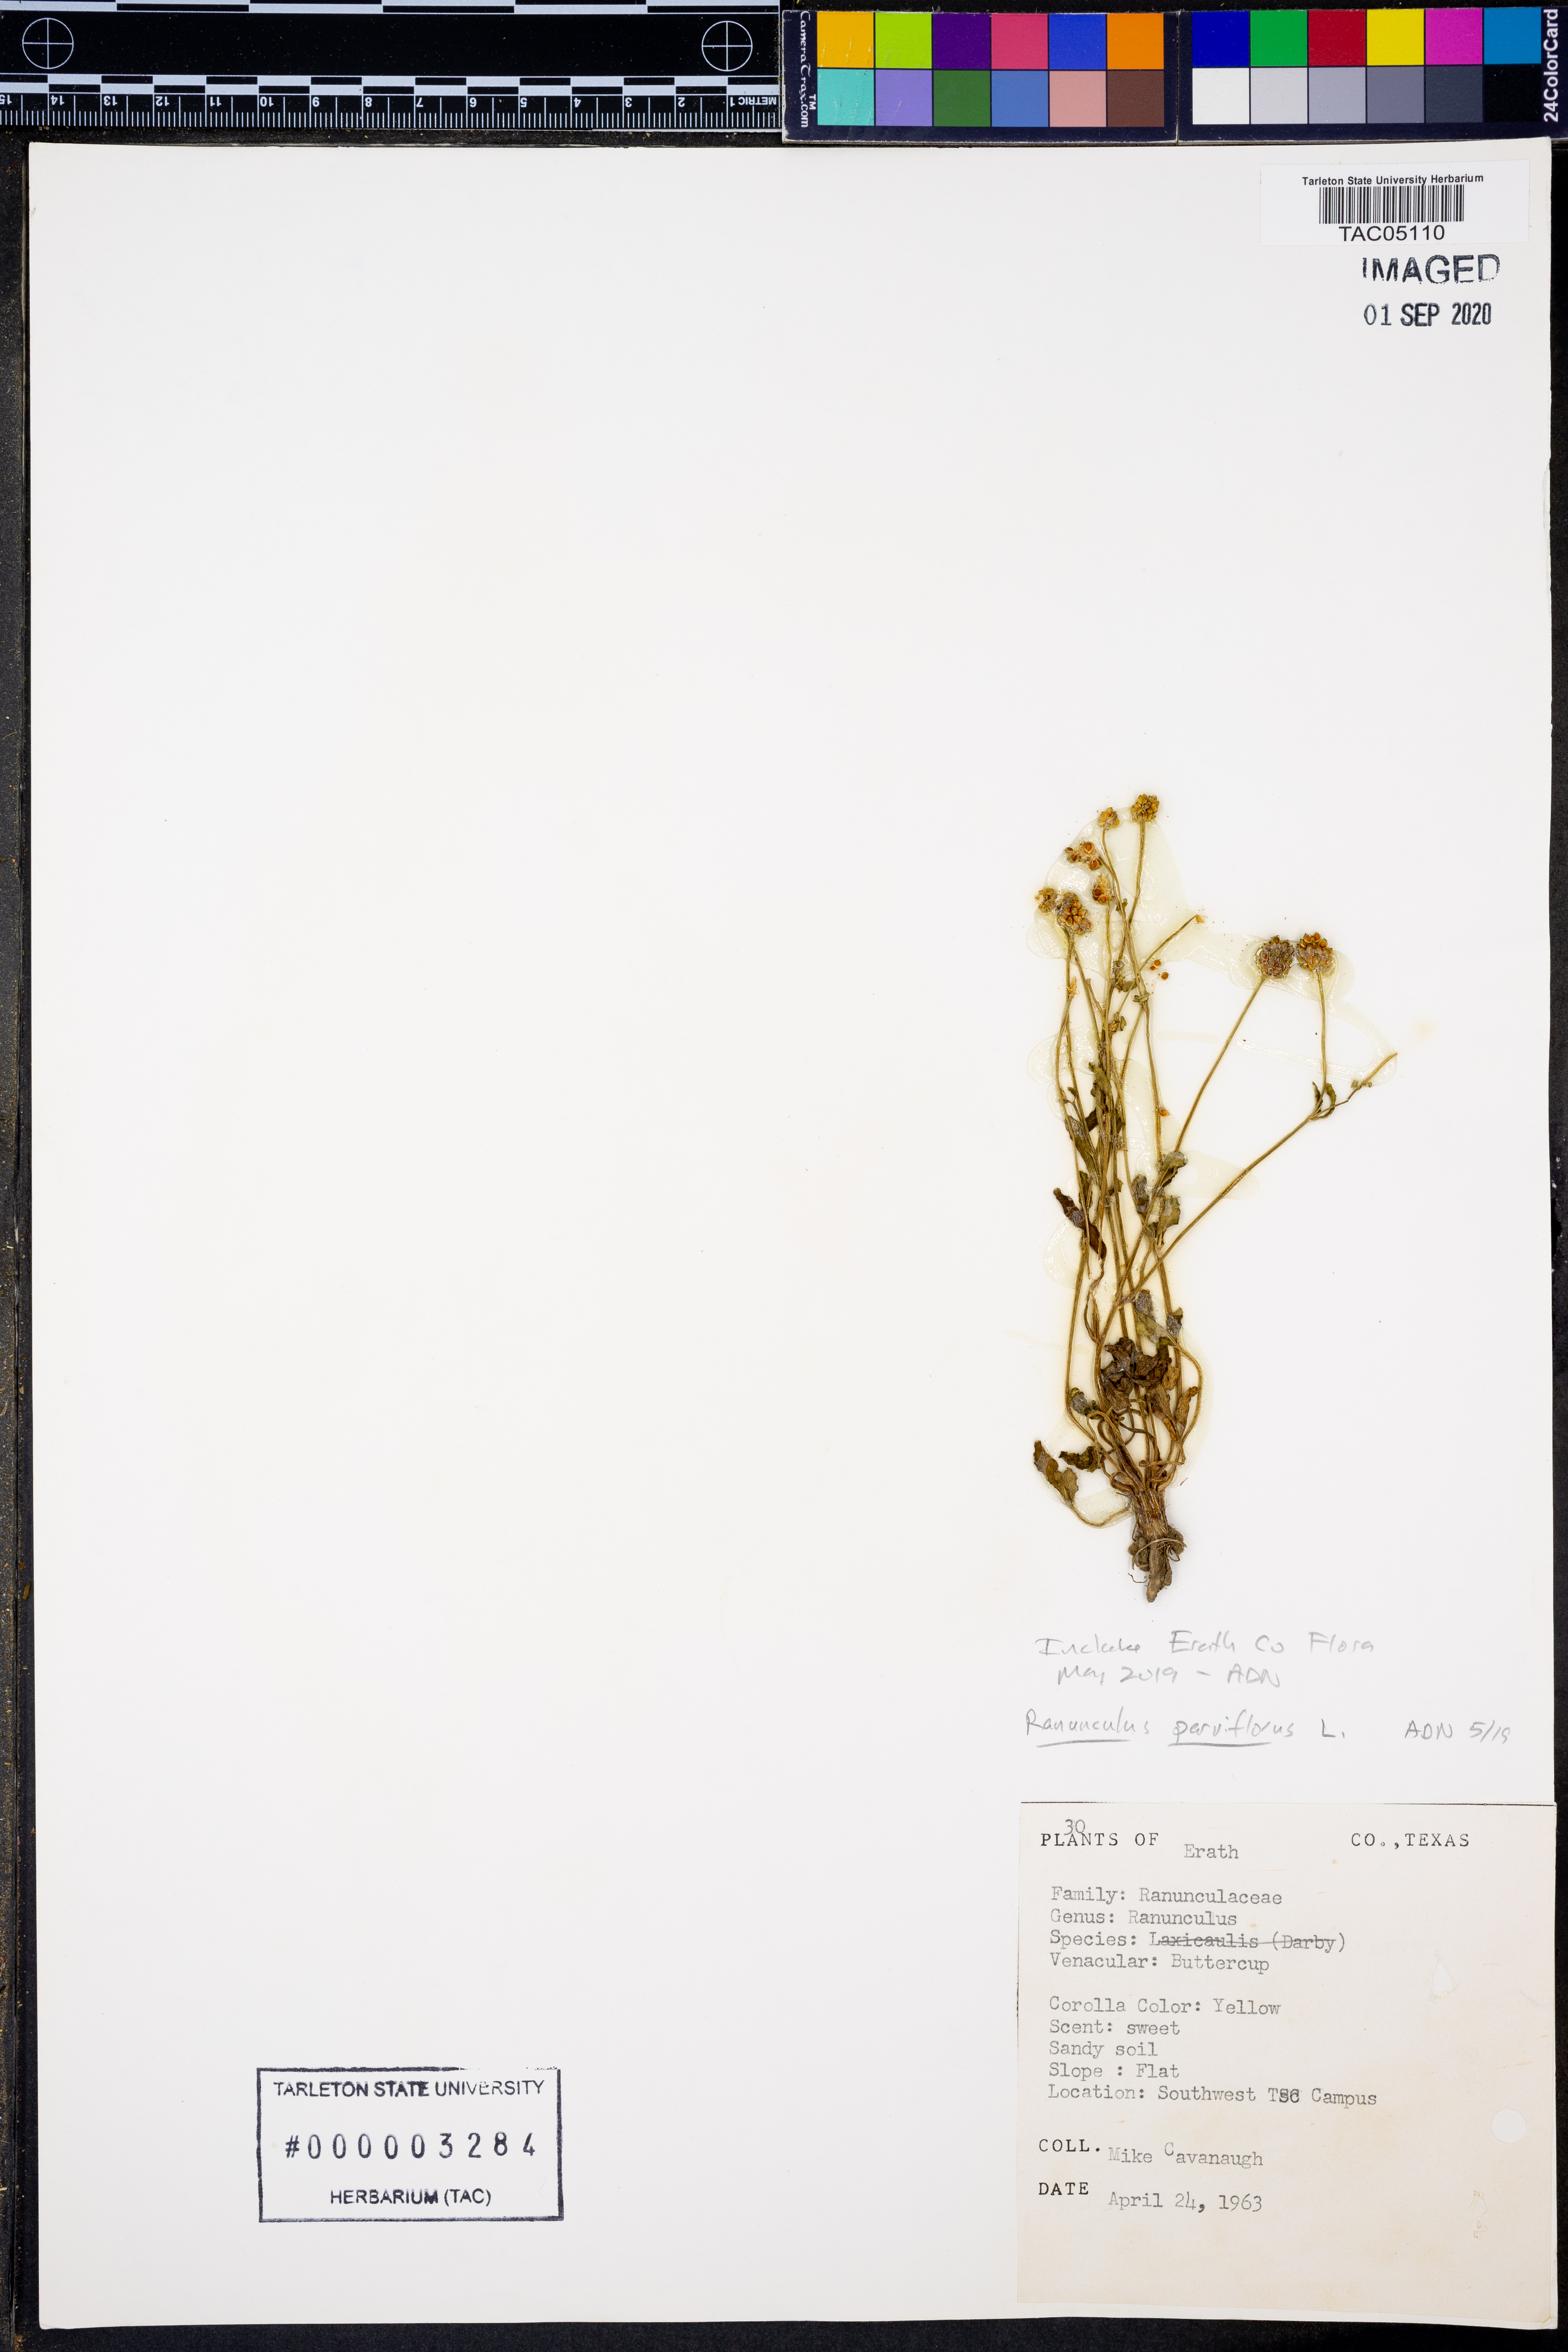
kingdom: Plantae
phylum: Tracheophyta
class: Magnoliopsida
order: Ranunculales
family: Ranunculaceae
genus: Ranunculus
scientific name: Ranunculus parviflorus
